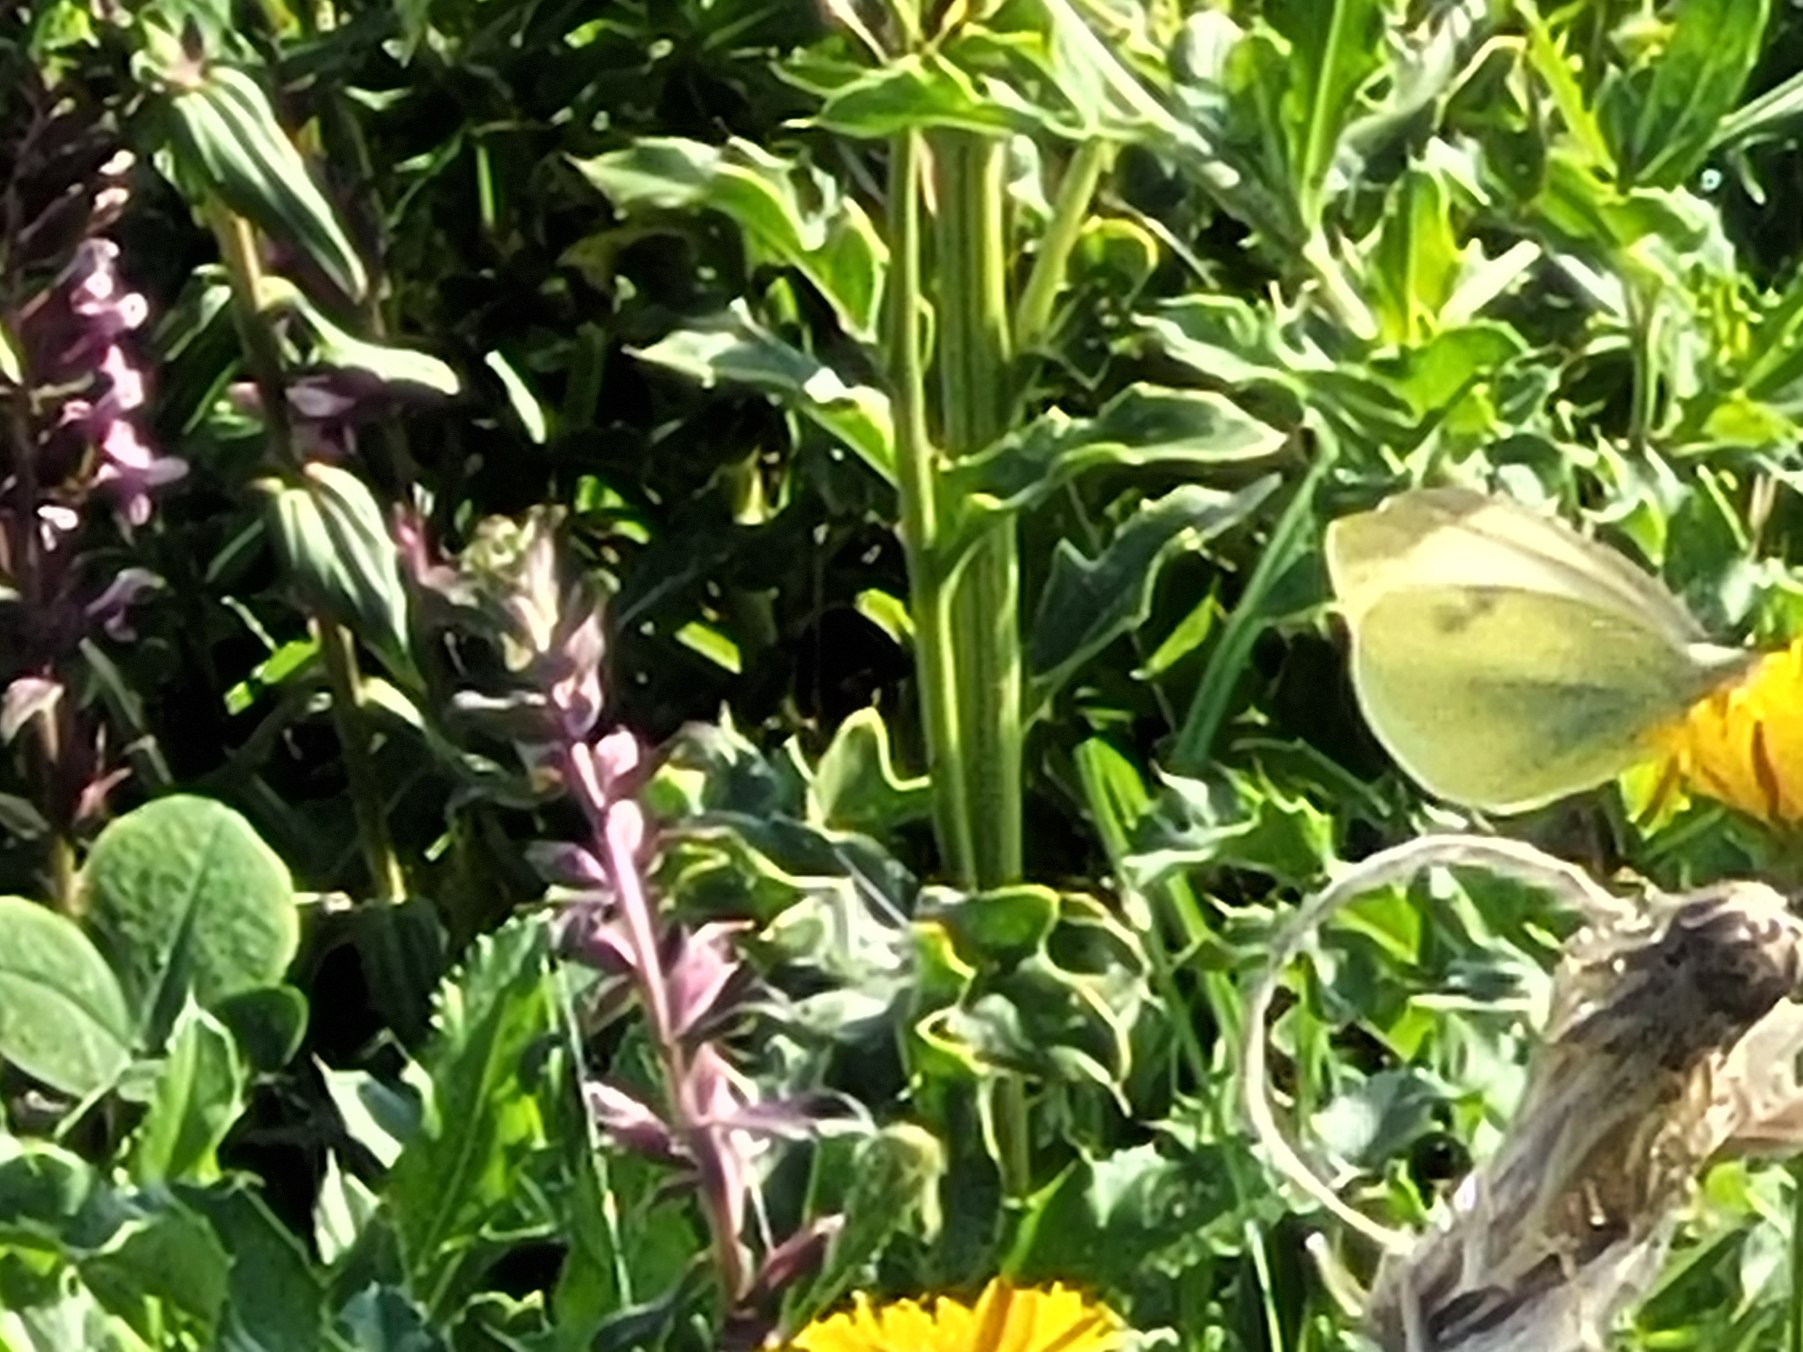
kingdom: Animalia
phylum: Arthropoda
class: Insecta
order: Lepidoptera
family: Pieridae
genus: Pieris
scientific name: Pieris rapae
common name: Lille kålsommerfugl
